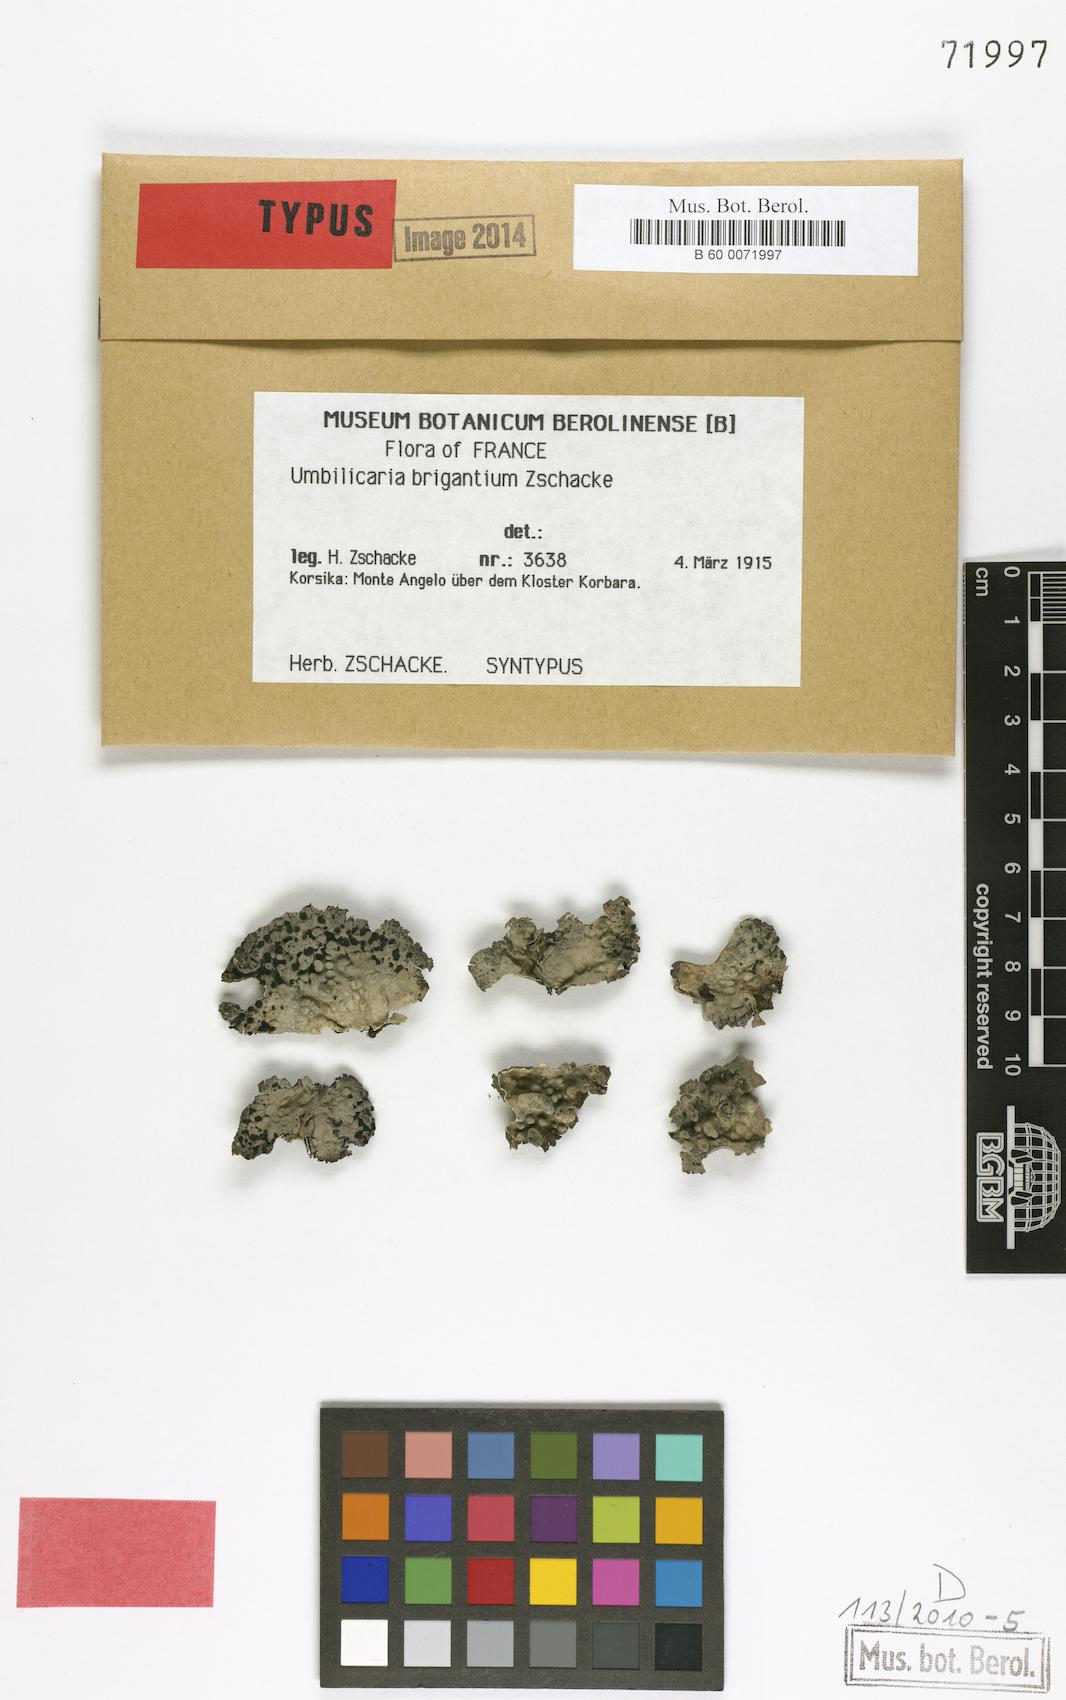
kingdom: Fungi
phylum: Ascomycota
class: Lecanoromycetes
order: Umbilicariales
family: Umbilicariaceae
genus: Lasallia
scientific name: Lasallia brigantium
